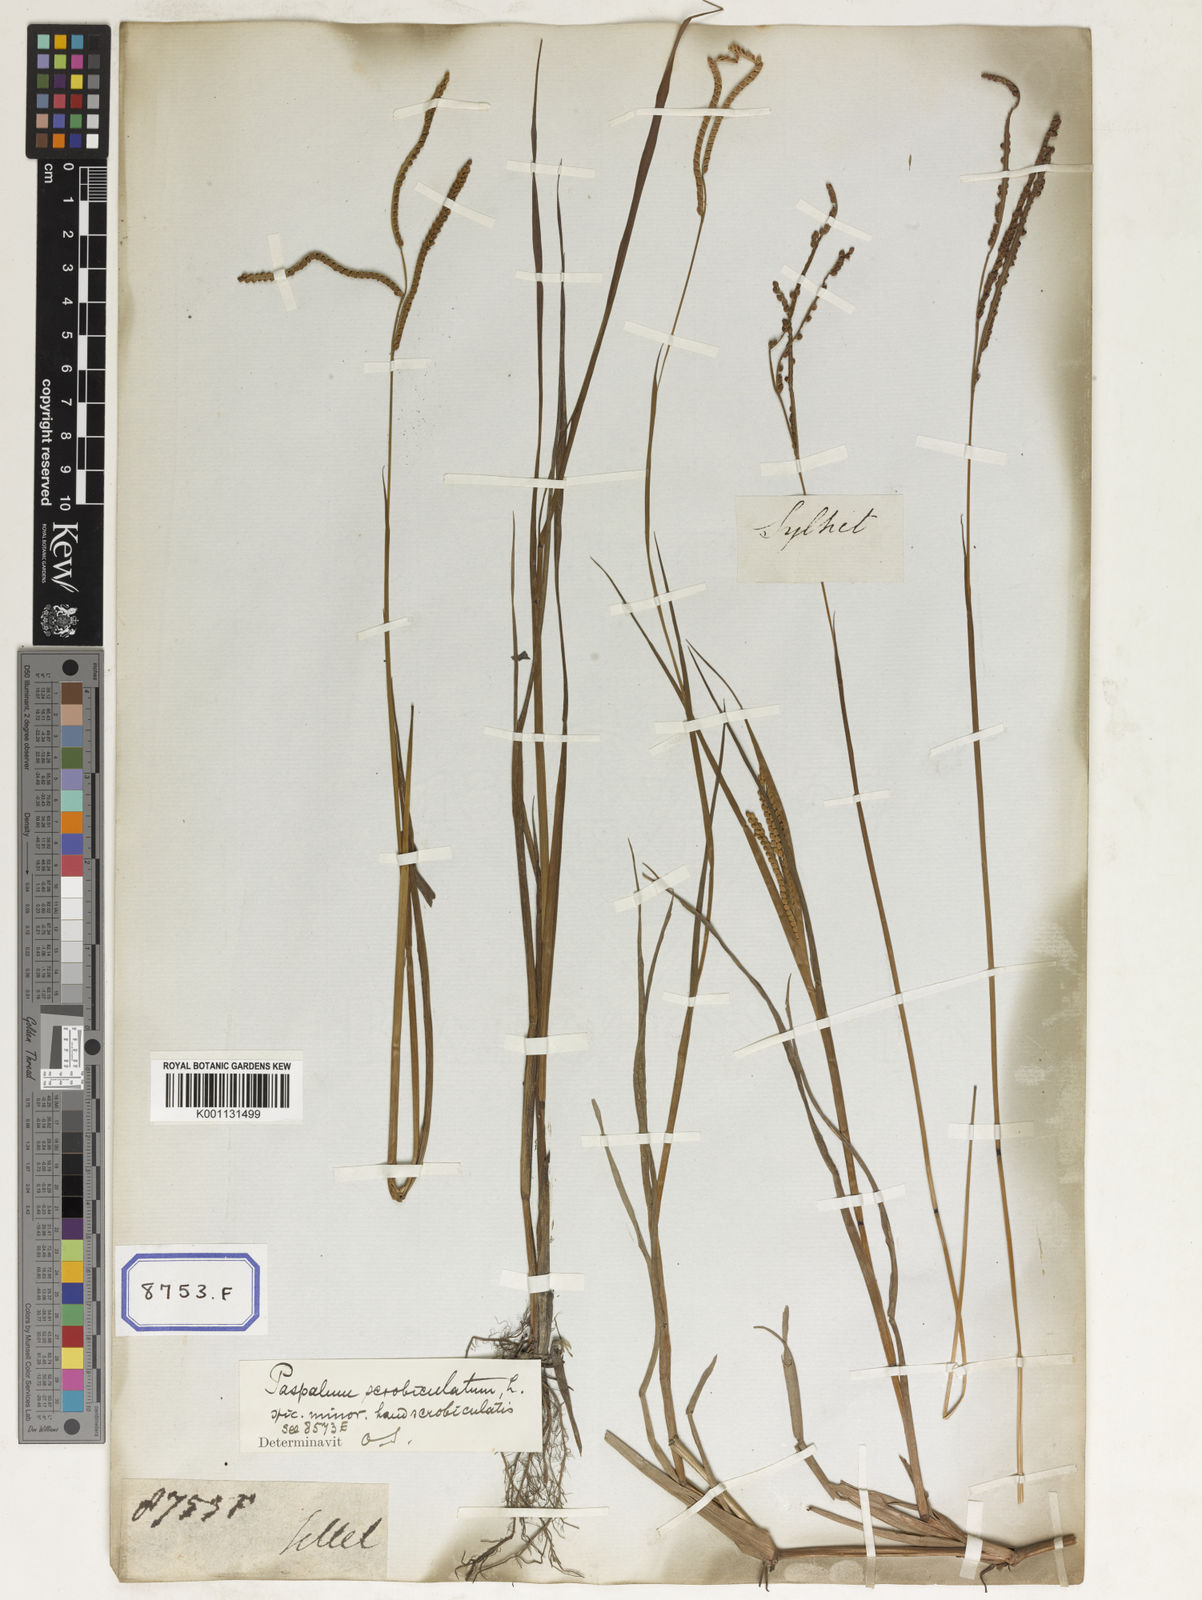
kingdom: Plantae
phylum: Tracheophyta
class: Liliopsida
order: Poales
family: Poaceae
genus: Paspalum
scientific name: Paspalum scrobiculatum
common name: Kodo millet
